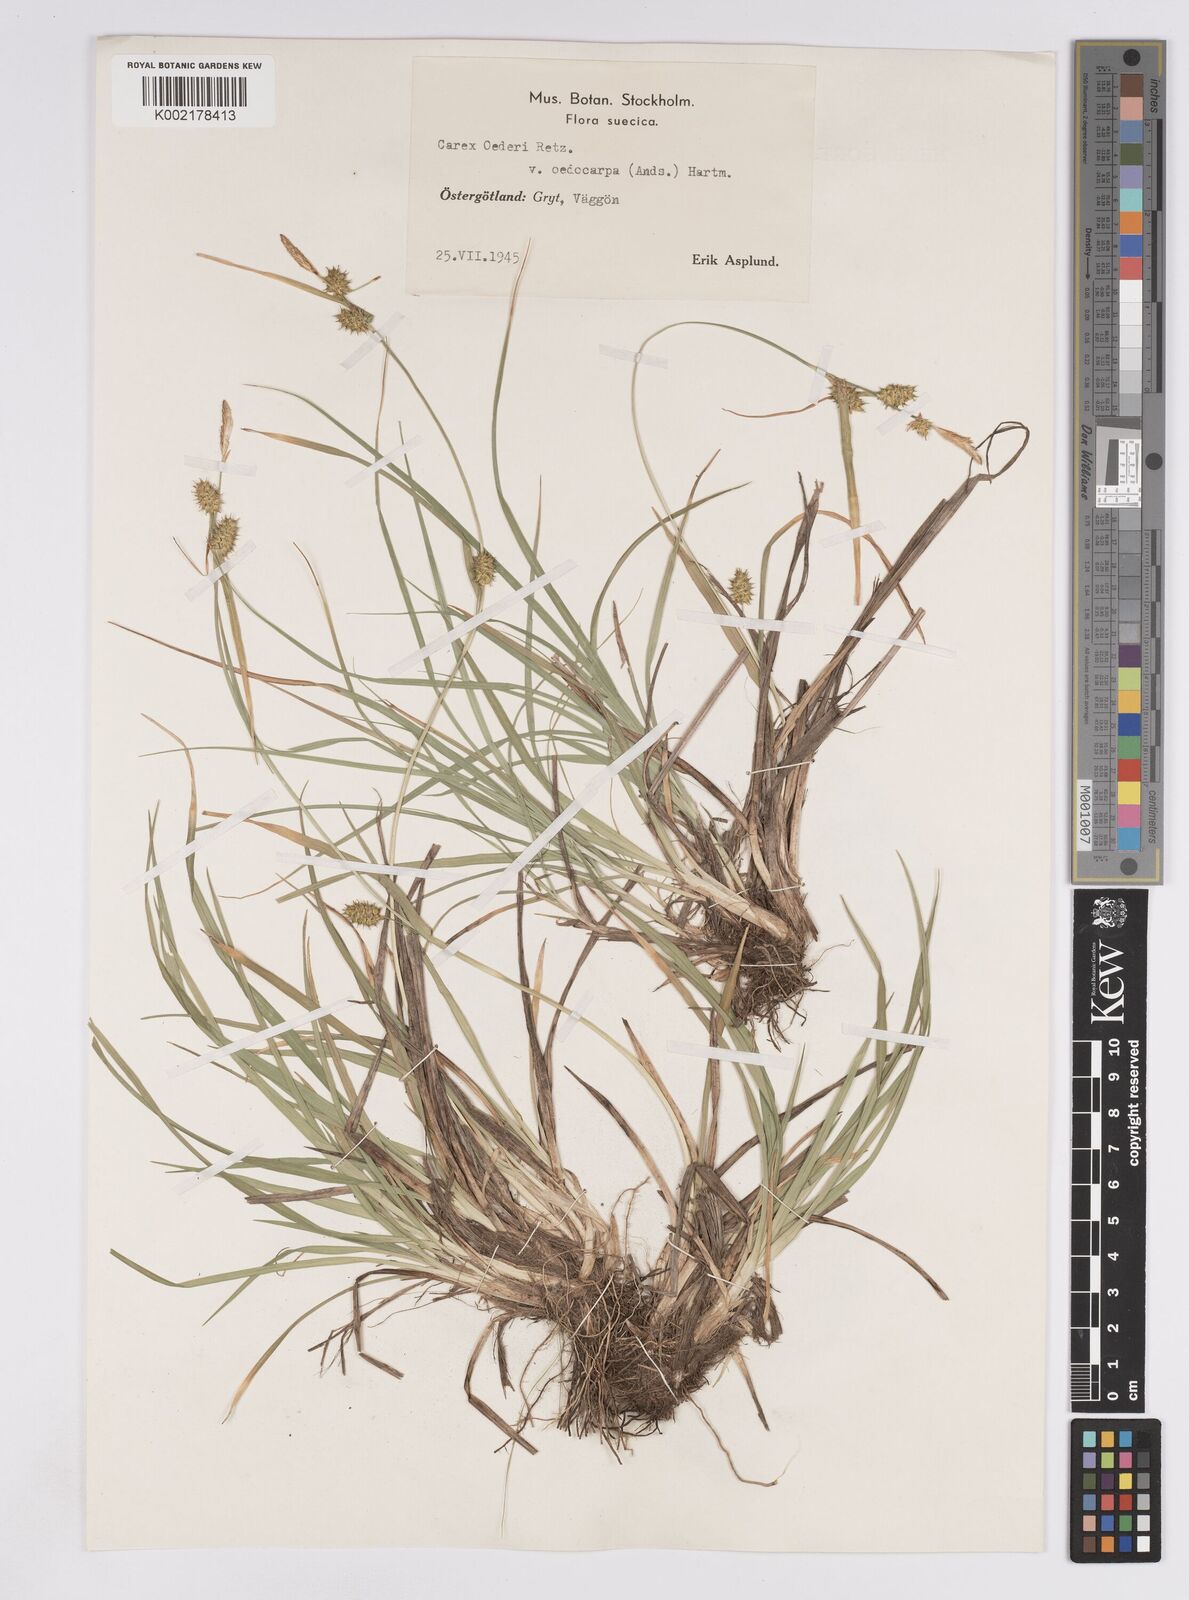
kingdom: Plantae
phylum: Tracheophyta
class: Liliopsida
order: Poales
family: Cyperaceae
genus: Carex
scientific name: Carex demissa
